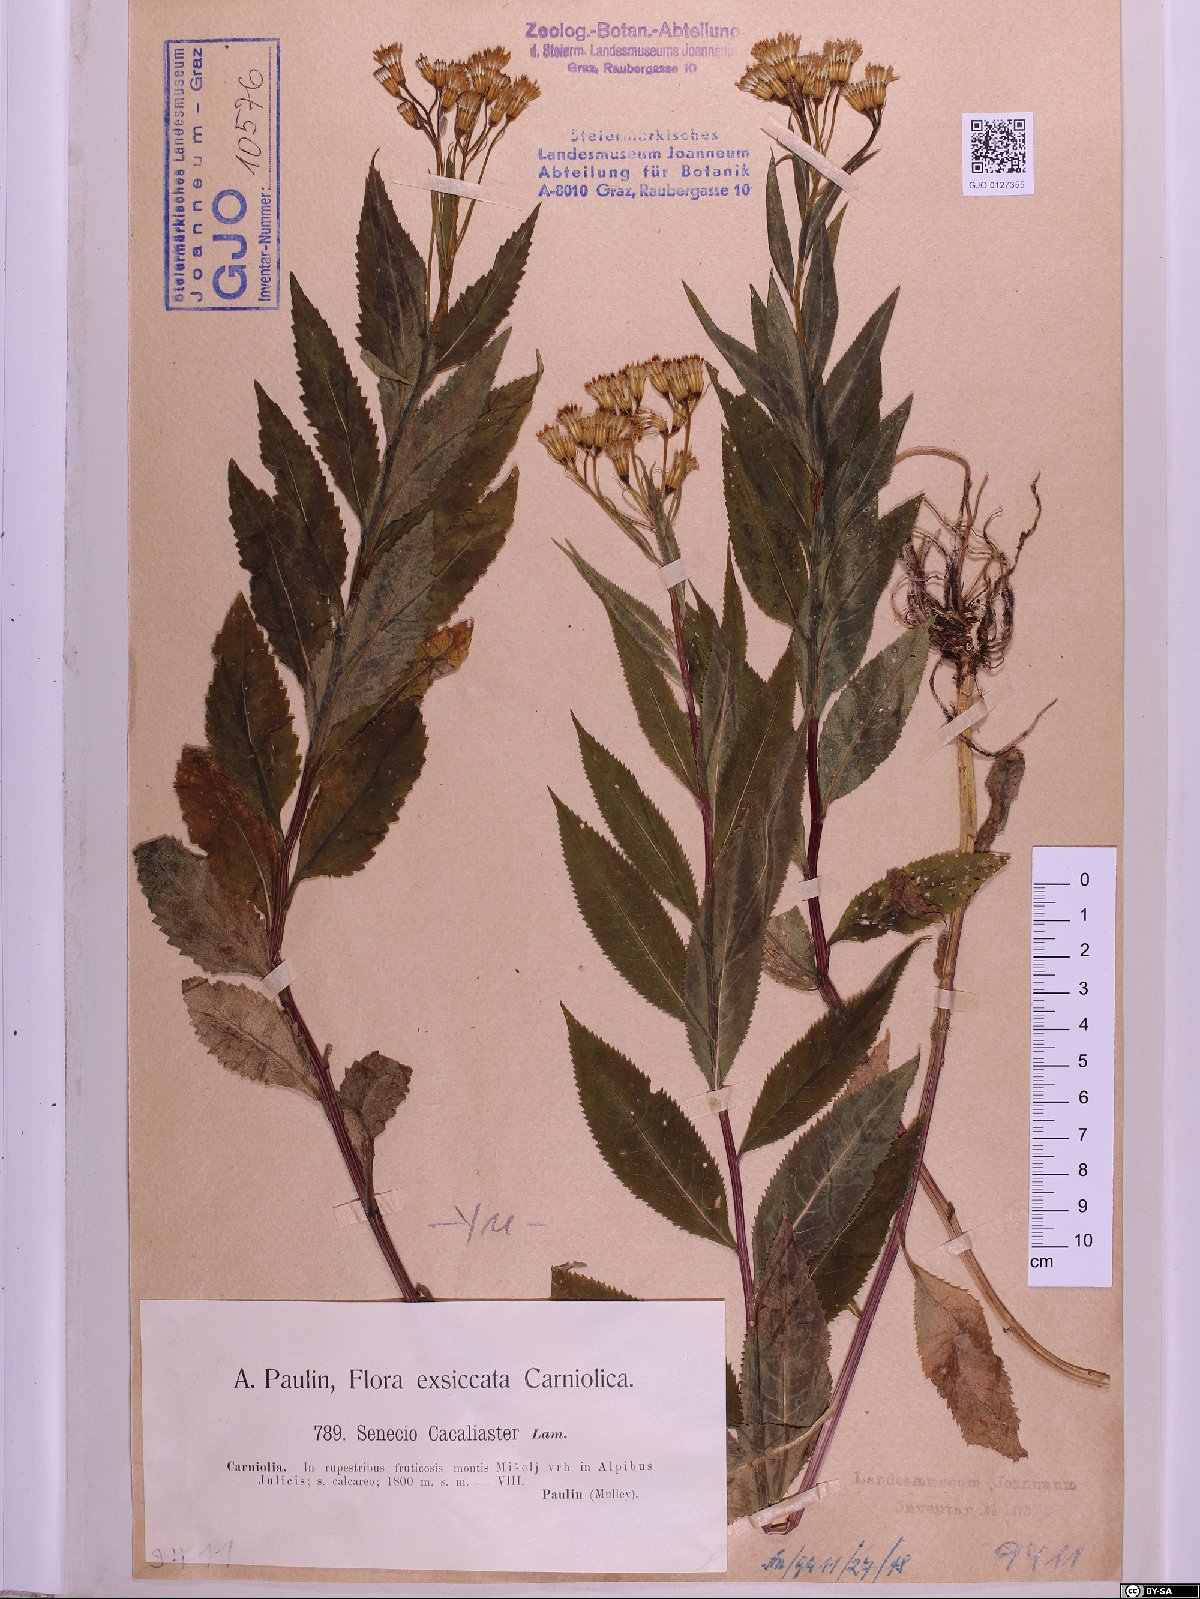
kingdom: Plantae
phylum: Tracheophyta
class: Magnoliopsida
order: Asterales
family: Asteraceae
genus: Senecio
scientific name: Senecio cacaliaster
